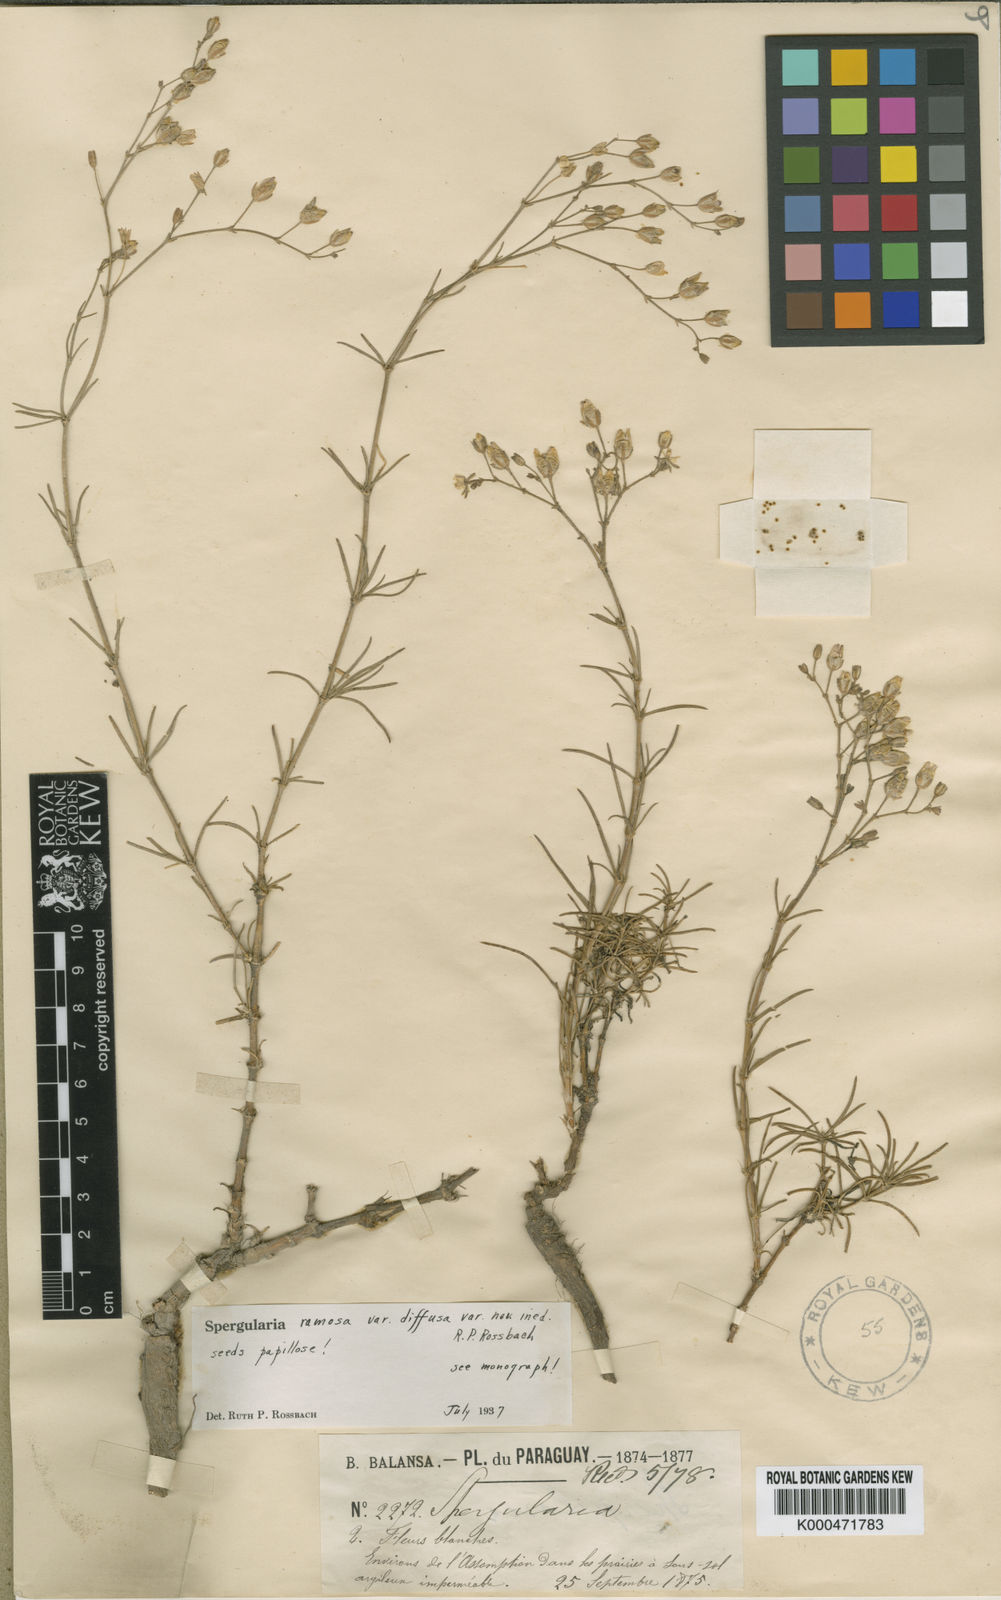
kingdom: Plantae
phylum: Tracheophyta
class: Magnoliopsida
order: Caryophyllales
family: Caryophyllaceae
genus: Spergula
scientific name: Spergula ramosa
